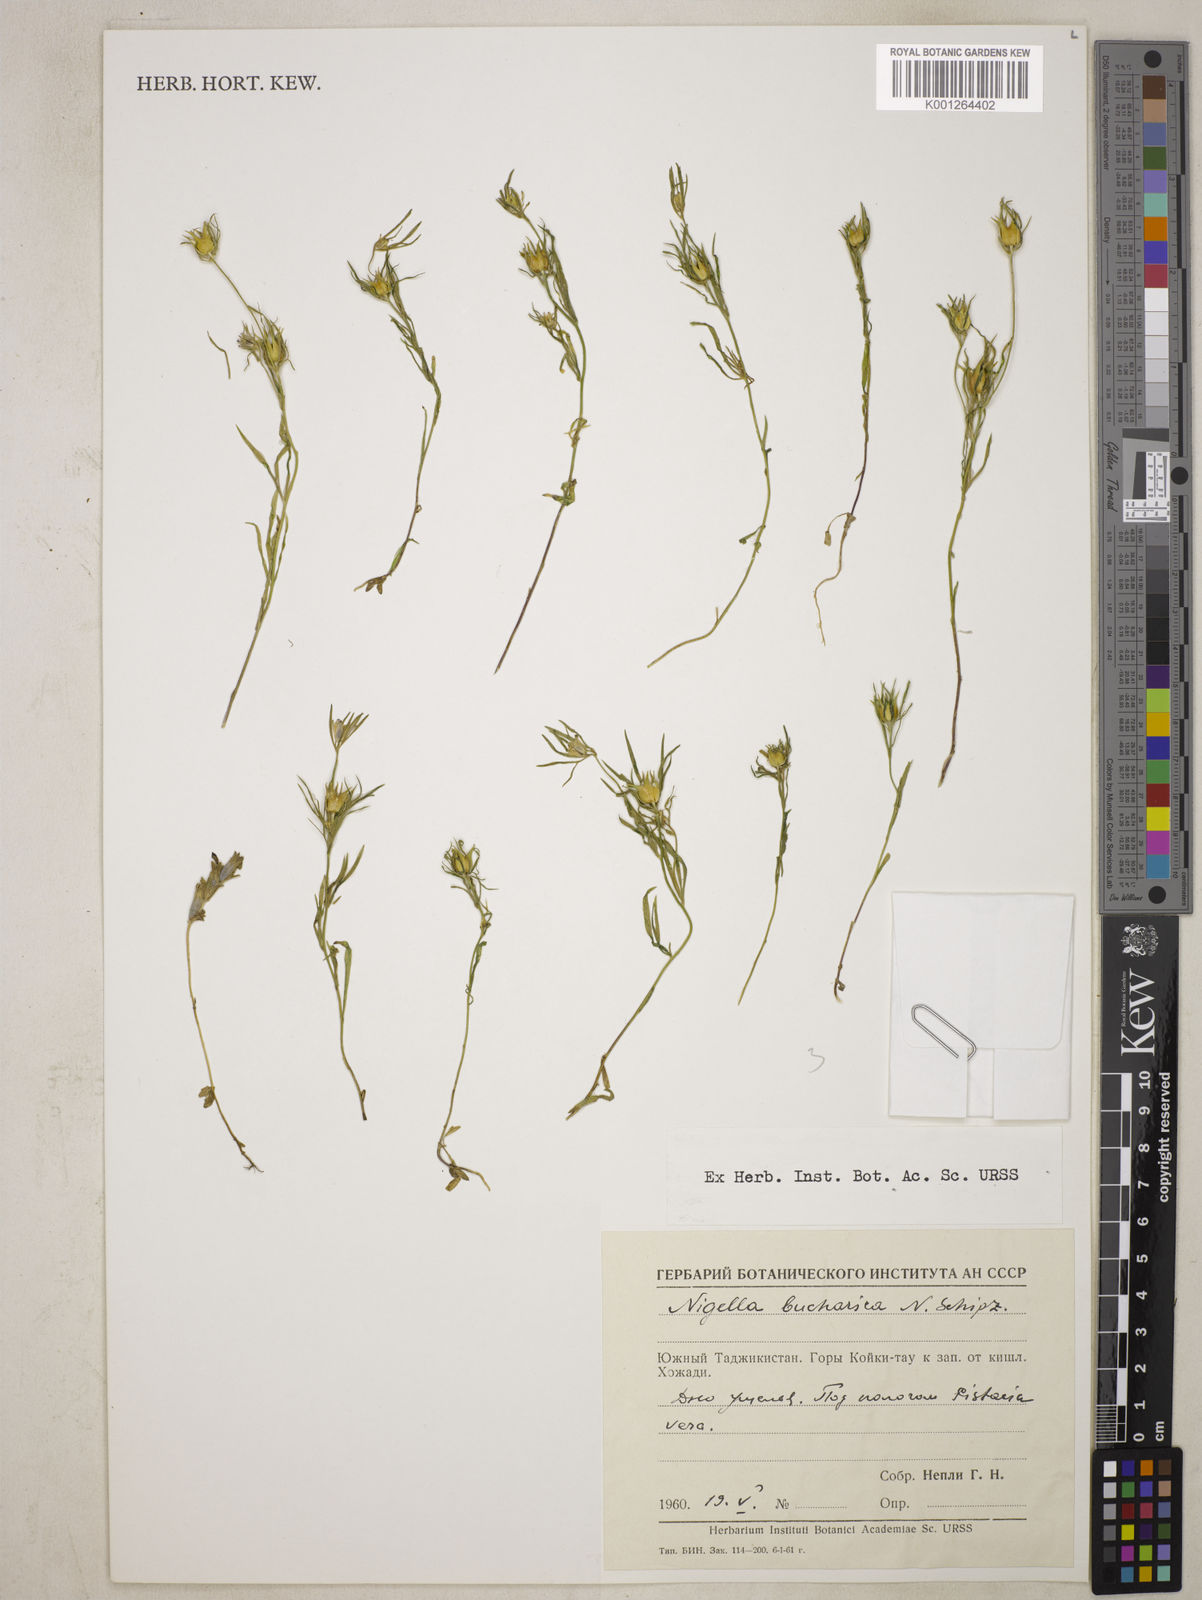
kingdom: Plantae
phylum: Tracheophyta
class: Magnoliopsida
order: Ranunculales
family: Ranunculaceae
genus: Komaroffia
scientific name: Komaroffia bucharica
